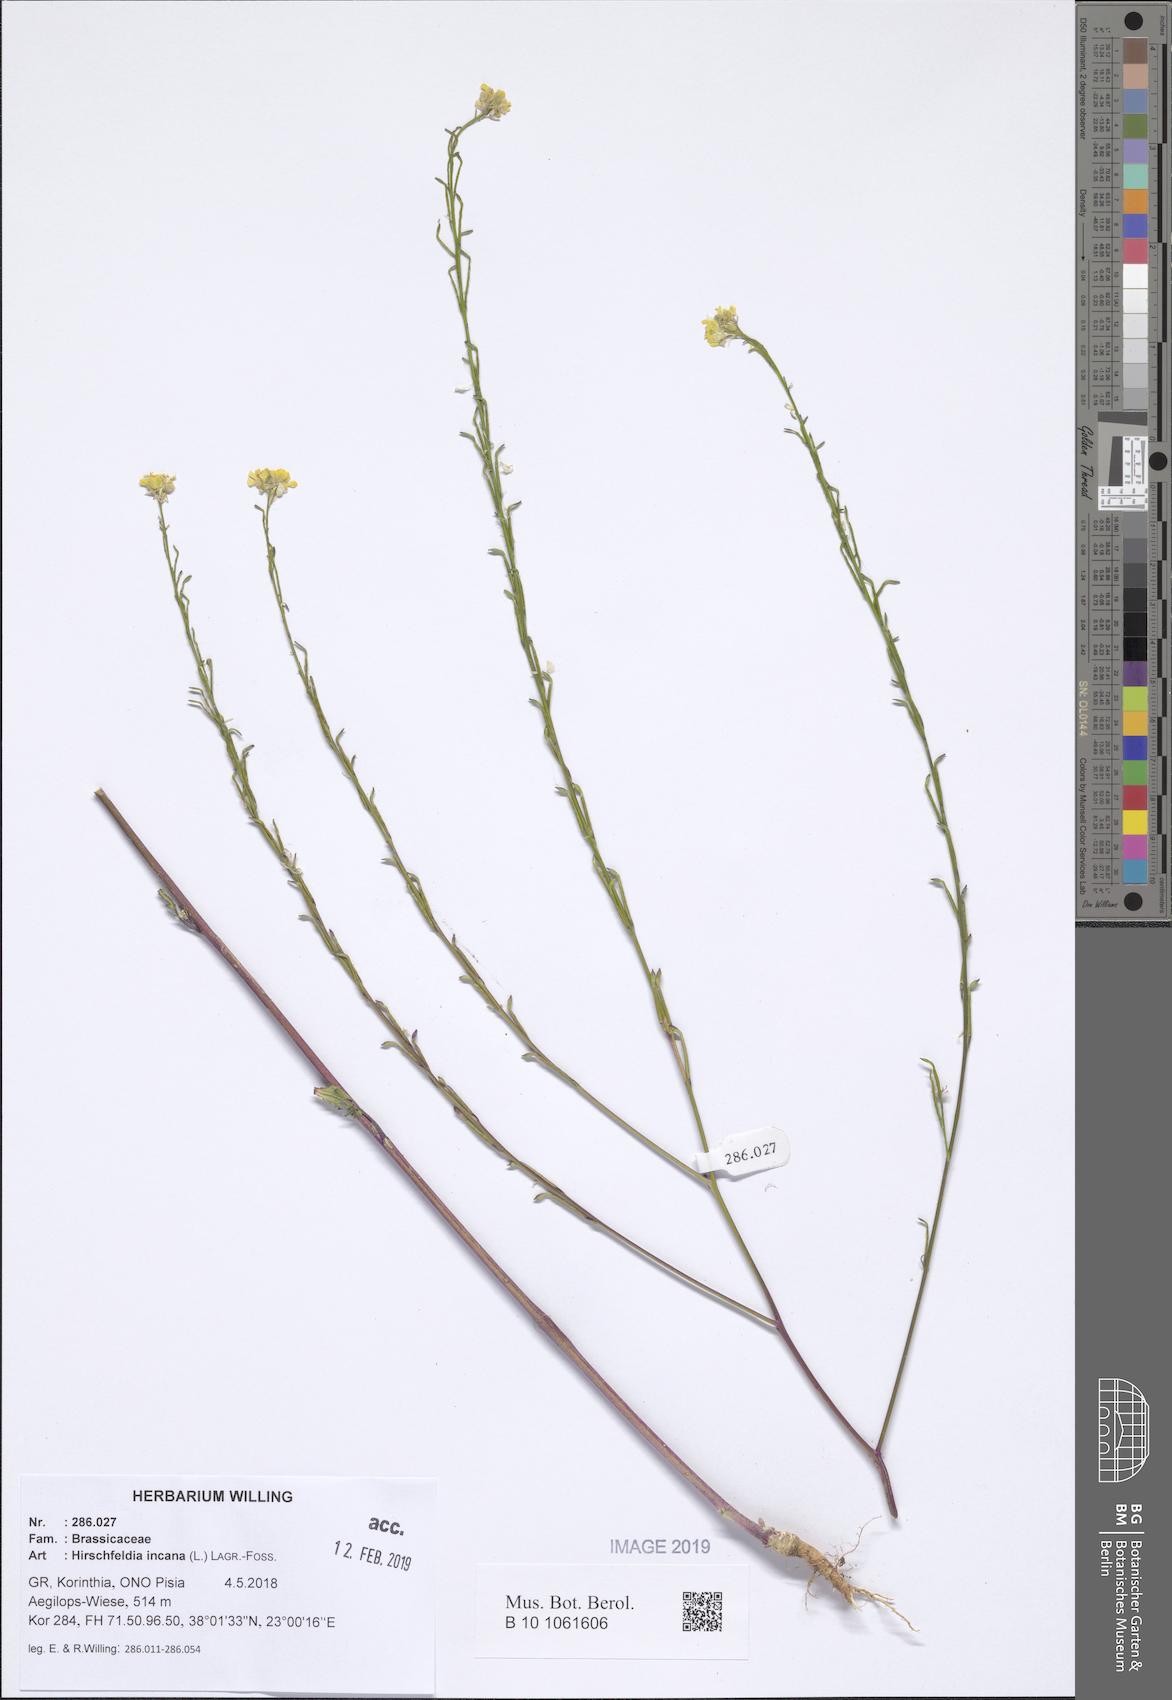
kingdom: Plantae
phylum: Tracheophyta
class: Magnoliopsida
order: Brassicales
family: Brassicaceae
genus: Hirschfeldia
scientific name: Hirschfeldia incana
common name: Hoary mustard
